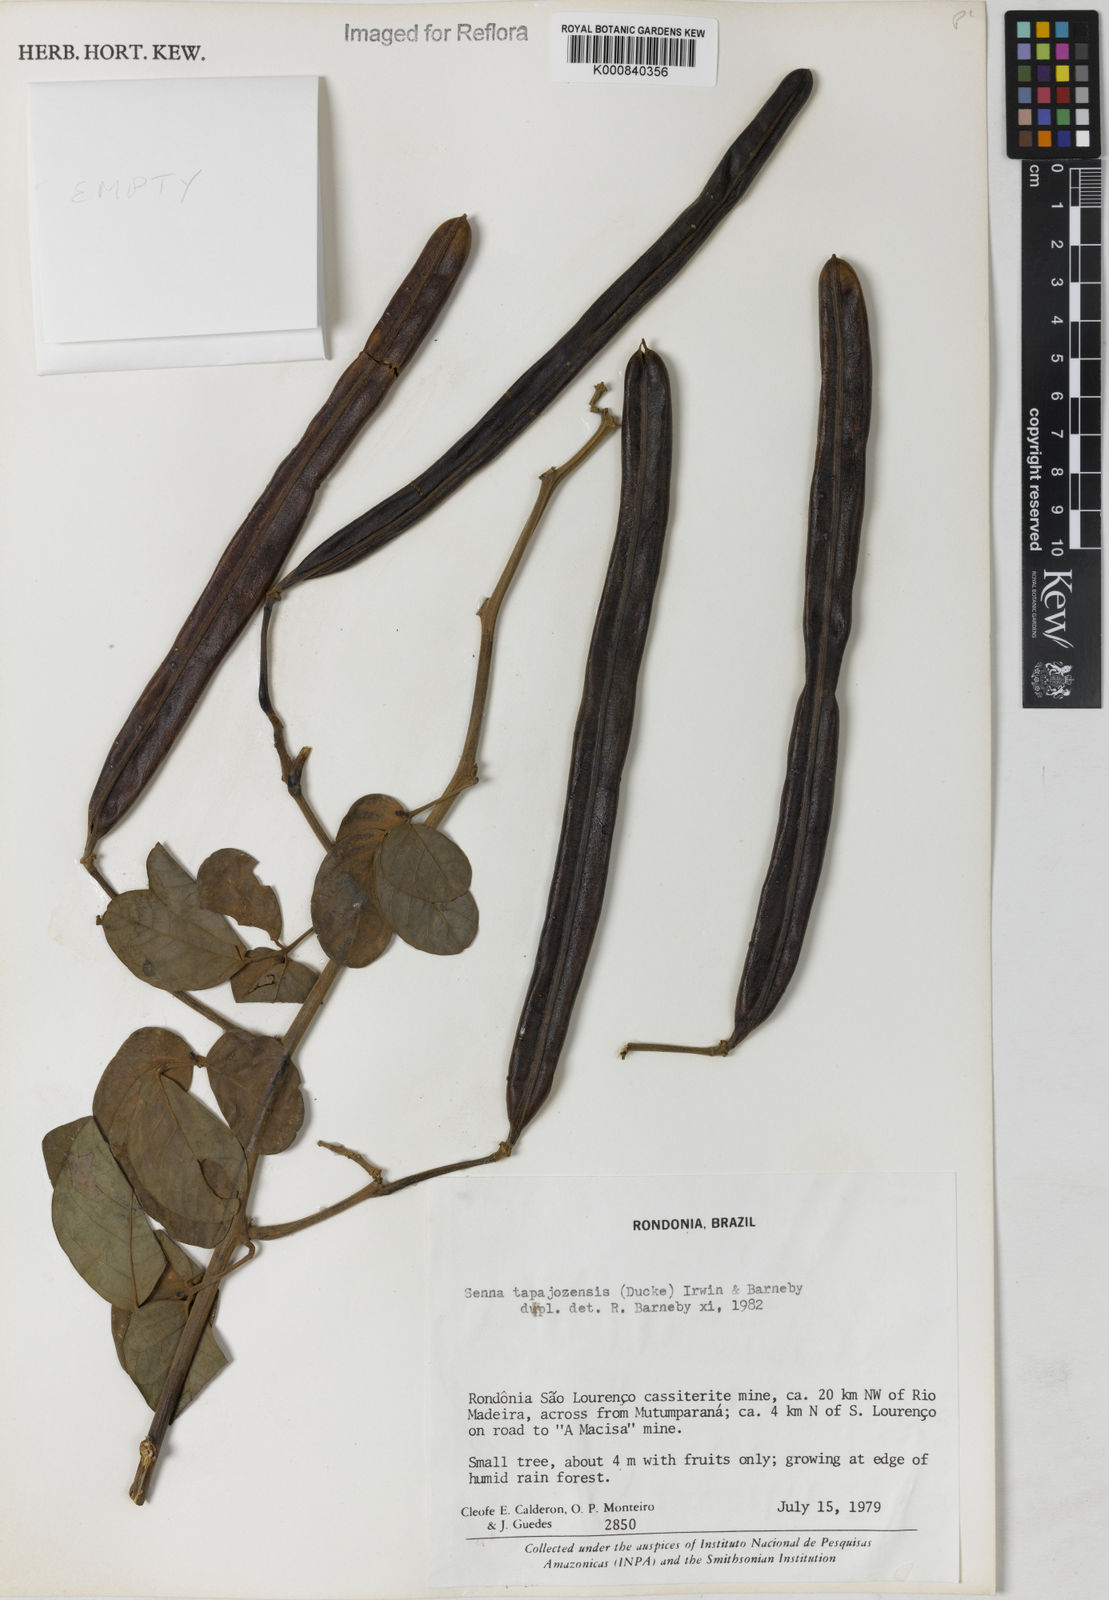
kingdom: Plantae
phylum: Tracheophyta
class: Magnoliopsida
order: Fabales
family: Fabaceae
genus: Senna
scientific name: Senna tapajozensis
